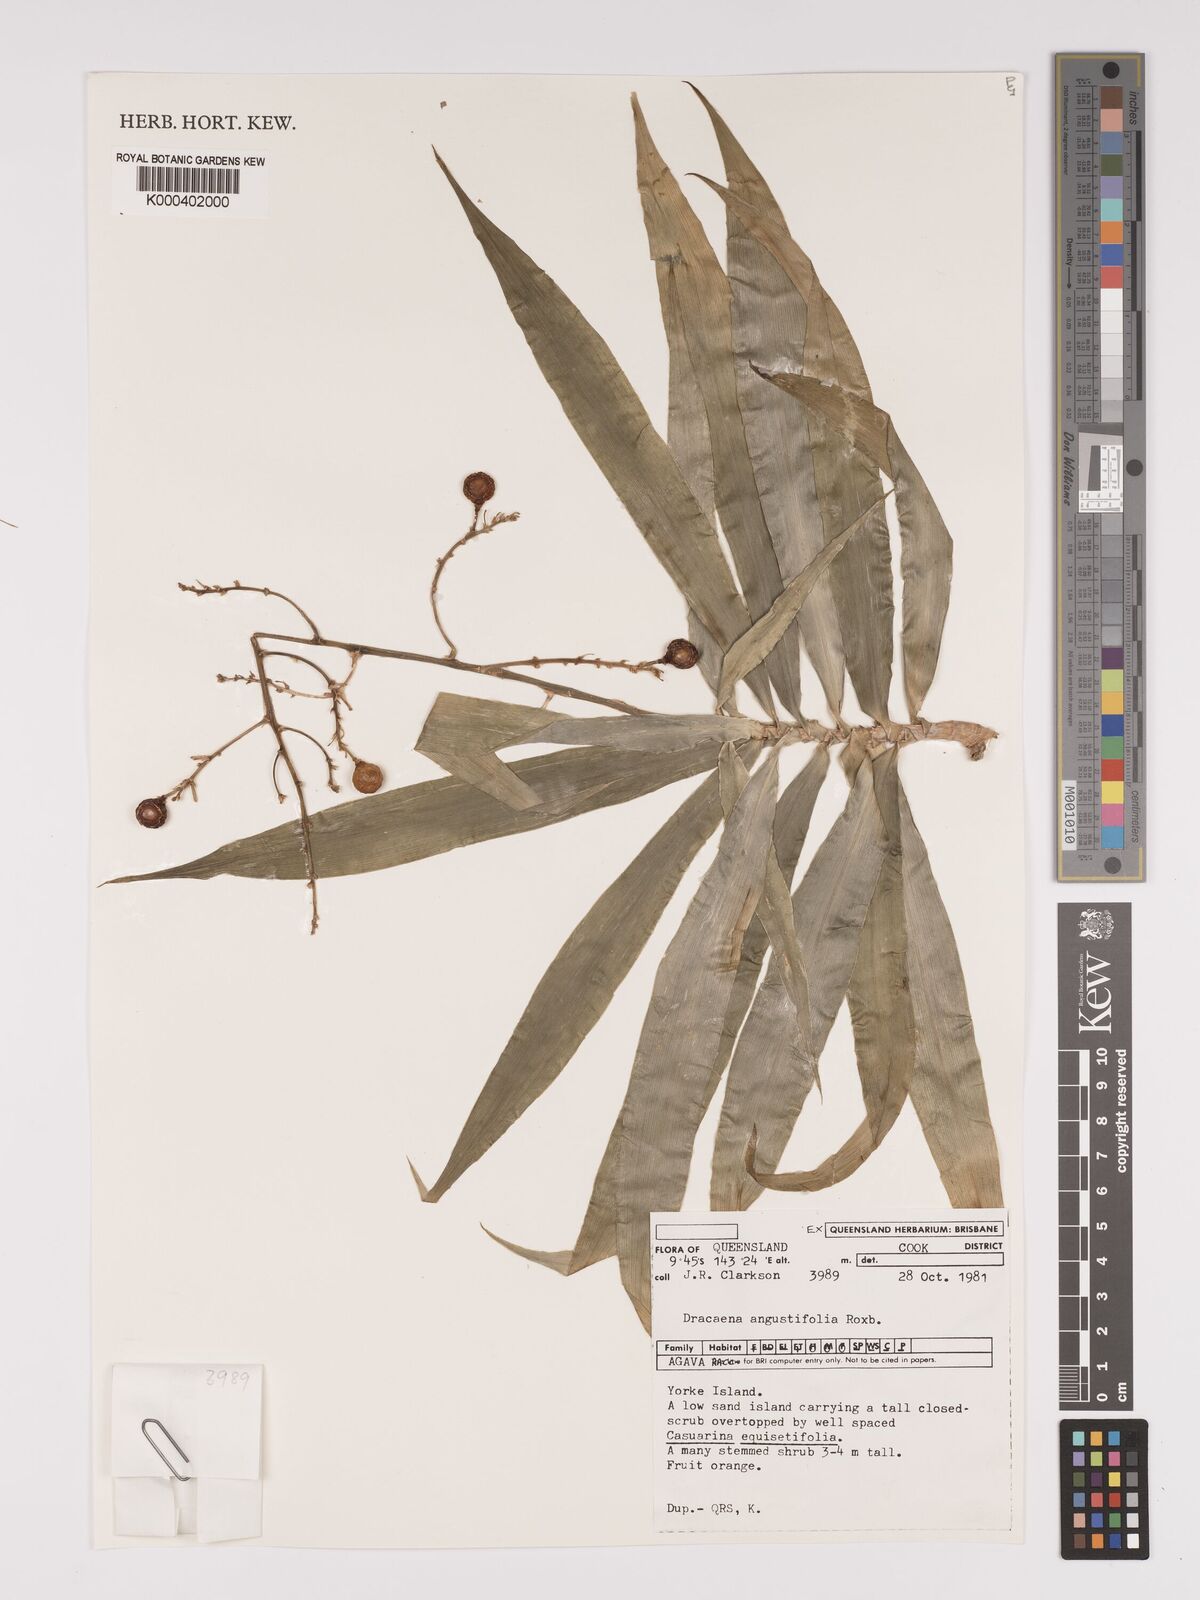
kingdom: Plantae
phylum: Tracheophyta
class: Liliopsida
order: Asparagales
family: Asparagaceae
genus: Dracaena
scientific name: Dracaena angustifolia
